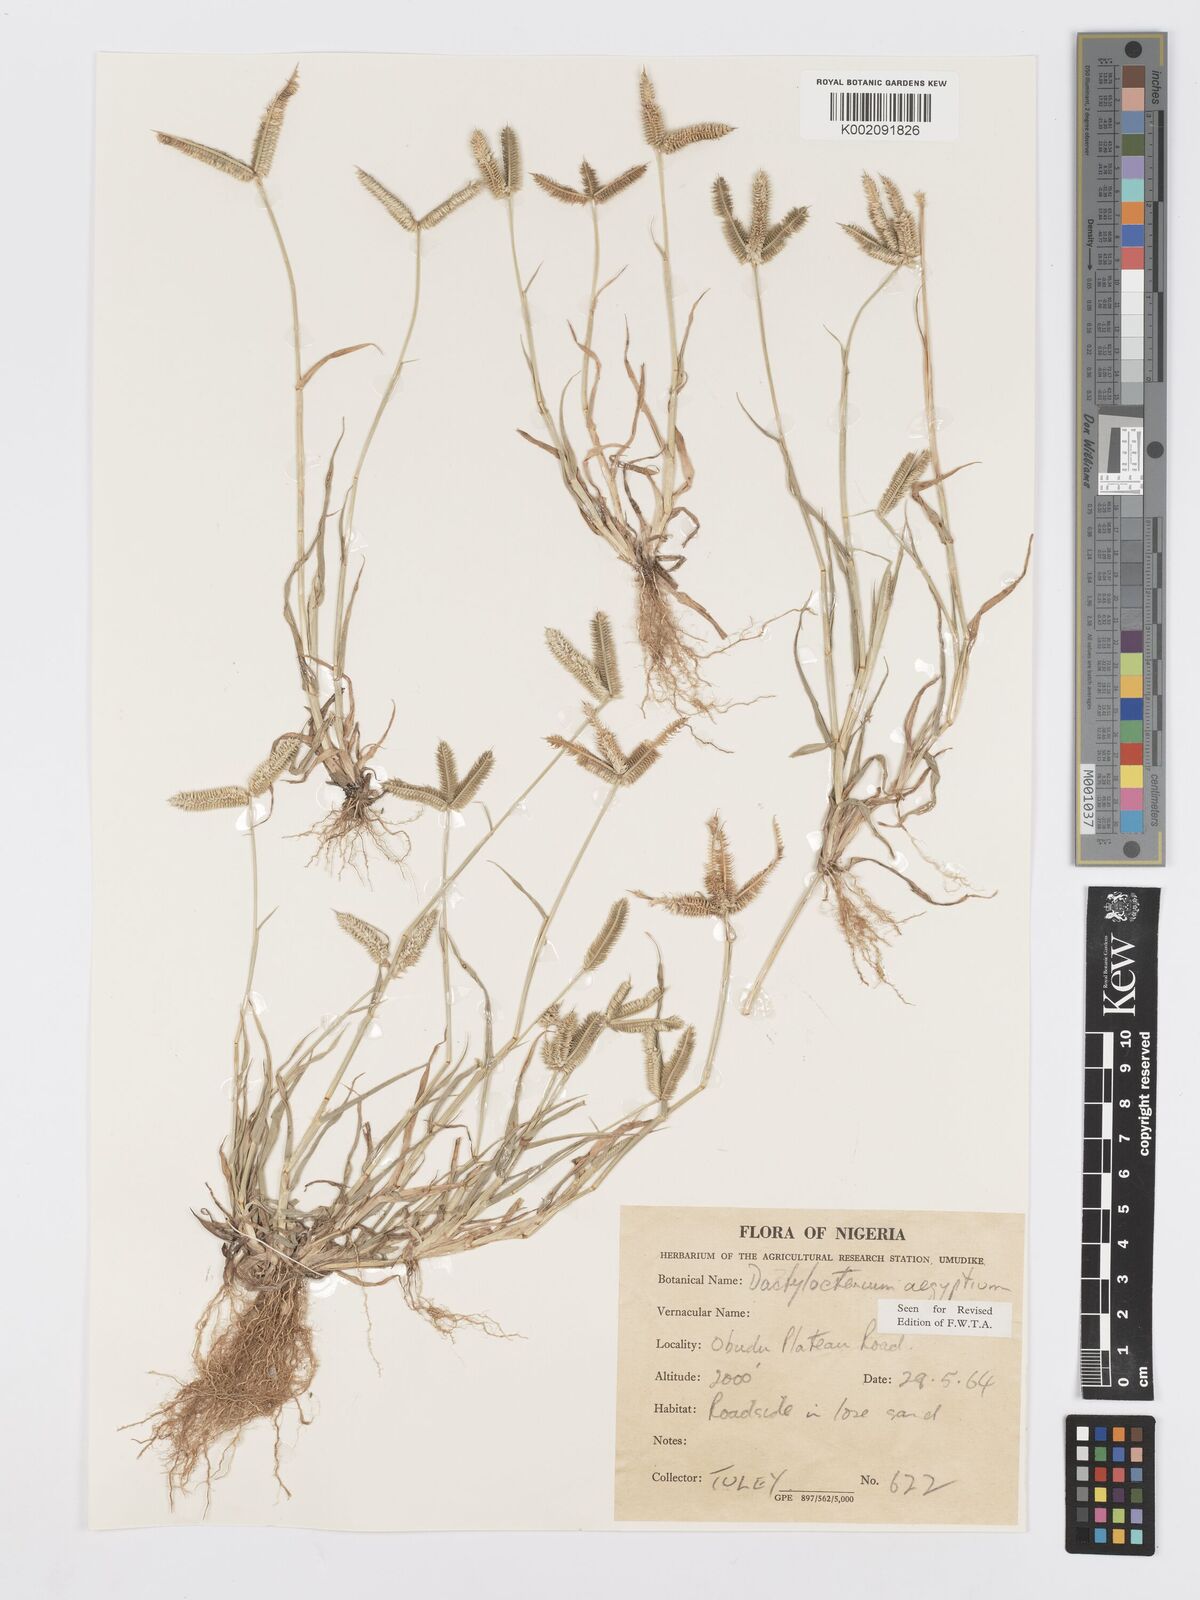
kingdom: Plantae
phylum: Tracheophyta
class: Liliopsida
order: Poales
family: Poaceae
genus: Dactyloctenium
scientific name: Dactyloctenium aegyptium
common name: Egyptian grass
